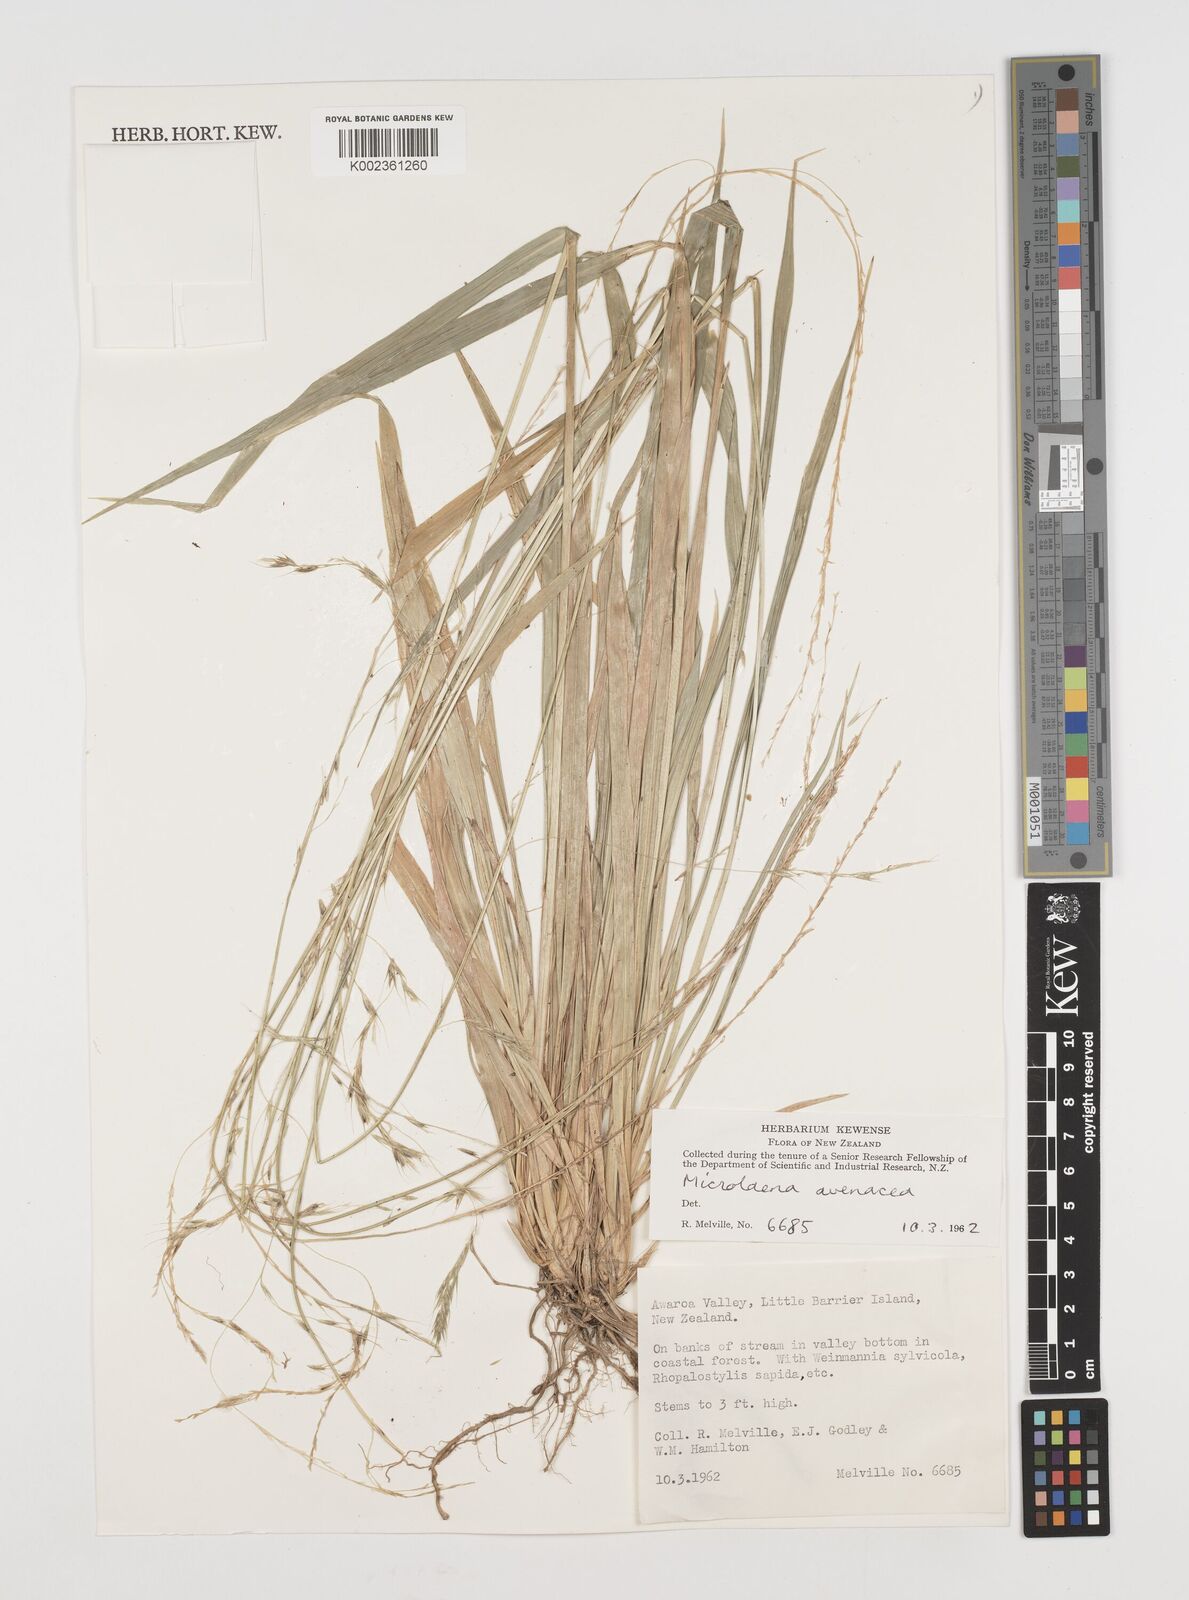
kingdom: Plantae
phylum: Tracheophyta
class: Liliopsida
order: Poales
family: Poaceae
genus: Ehrharta
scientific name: Ehrharta diplax
